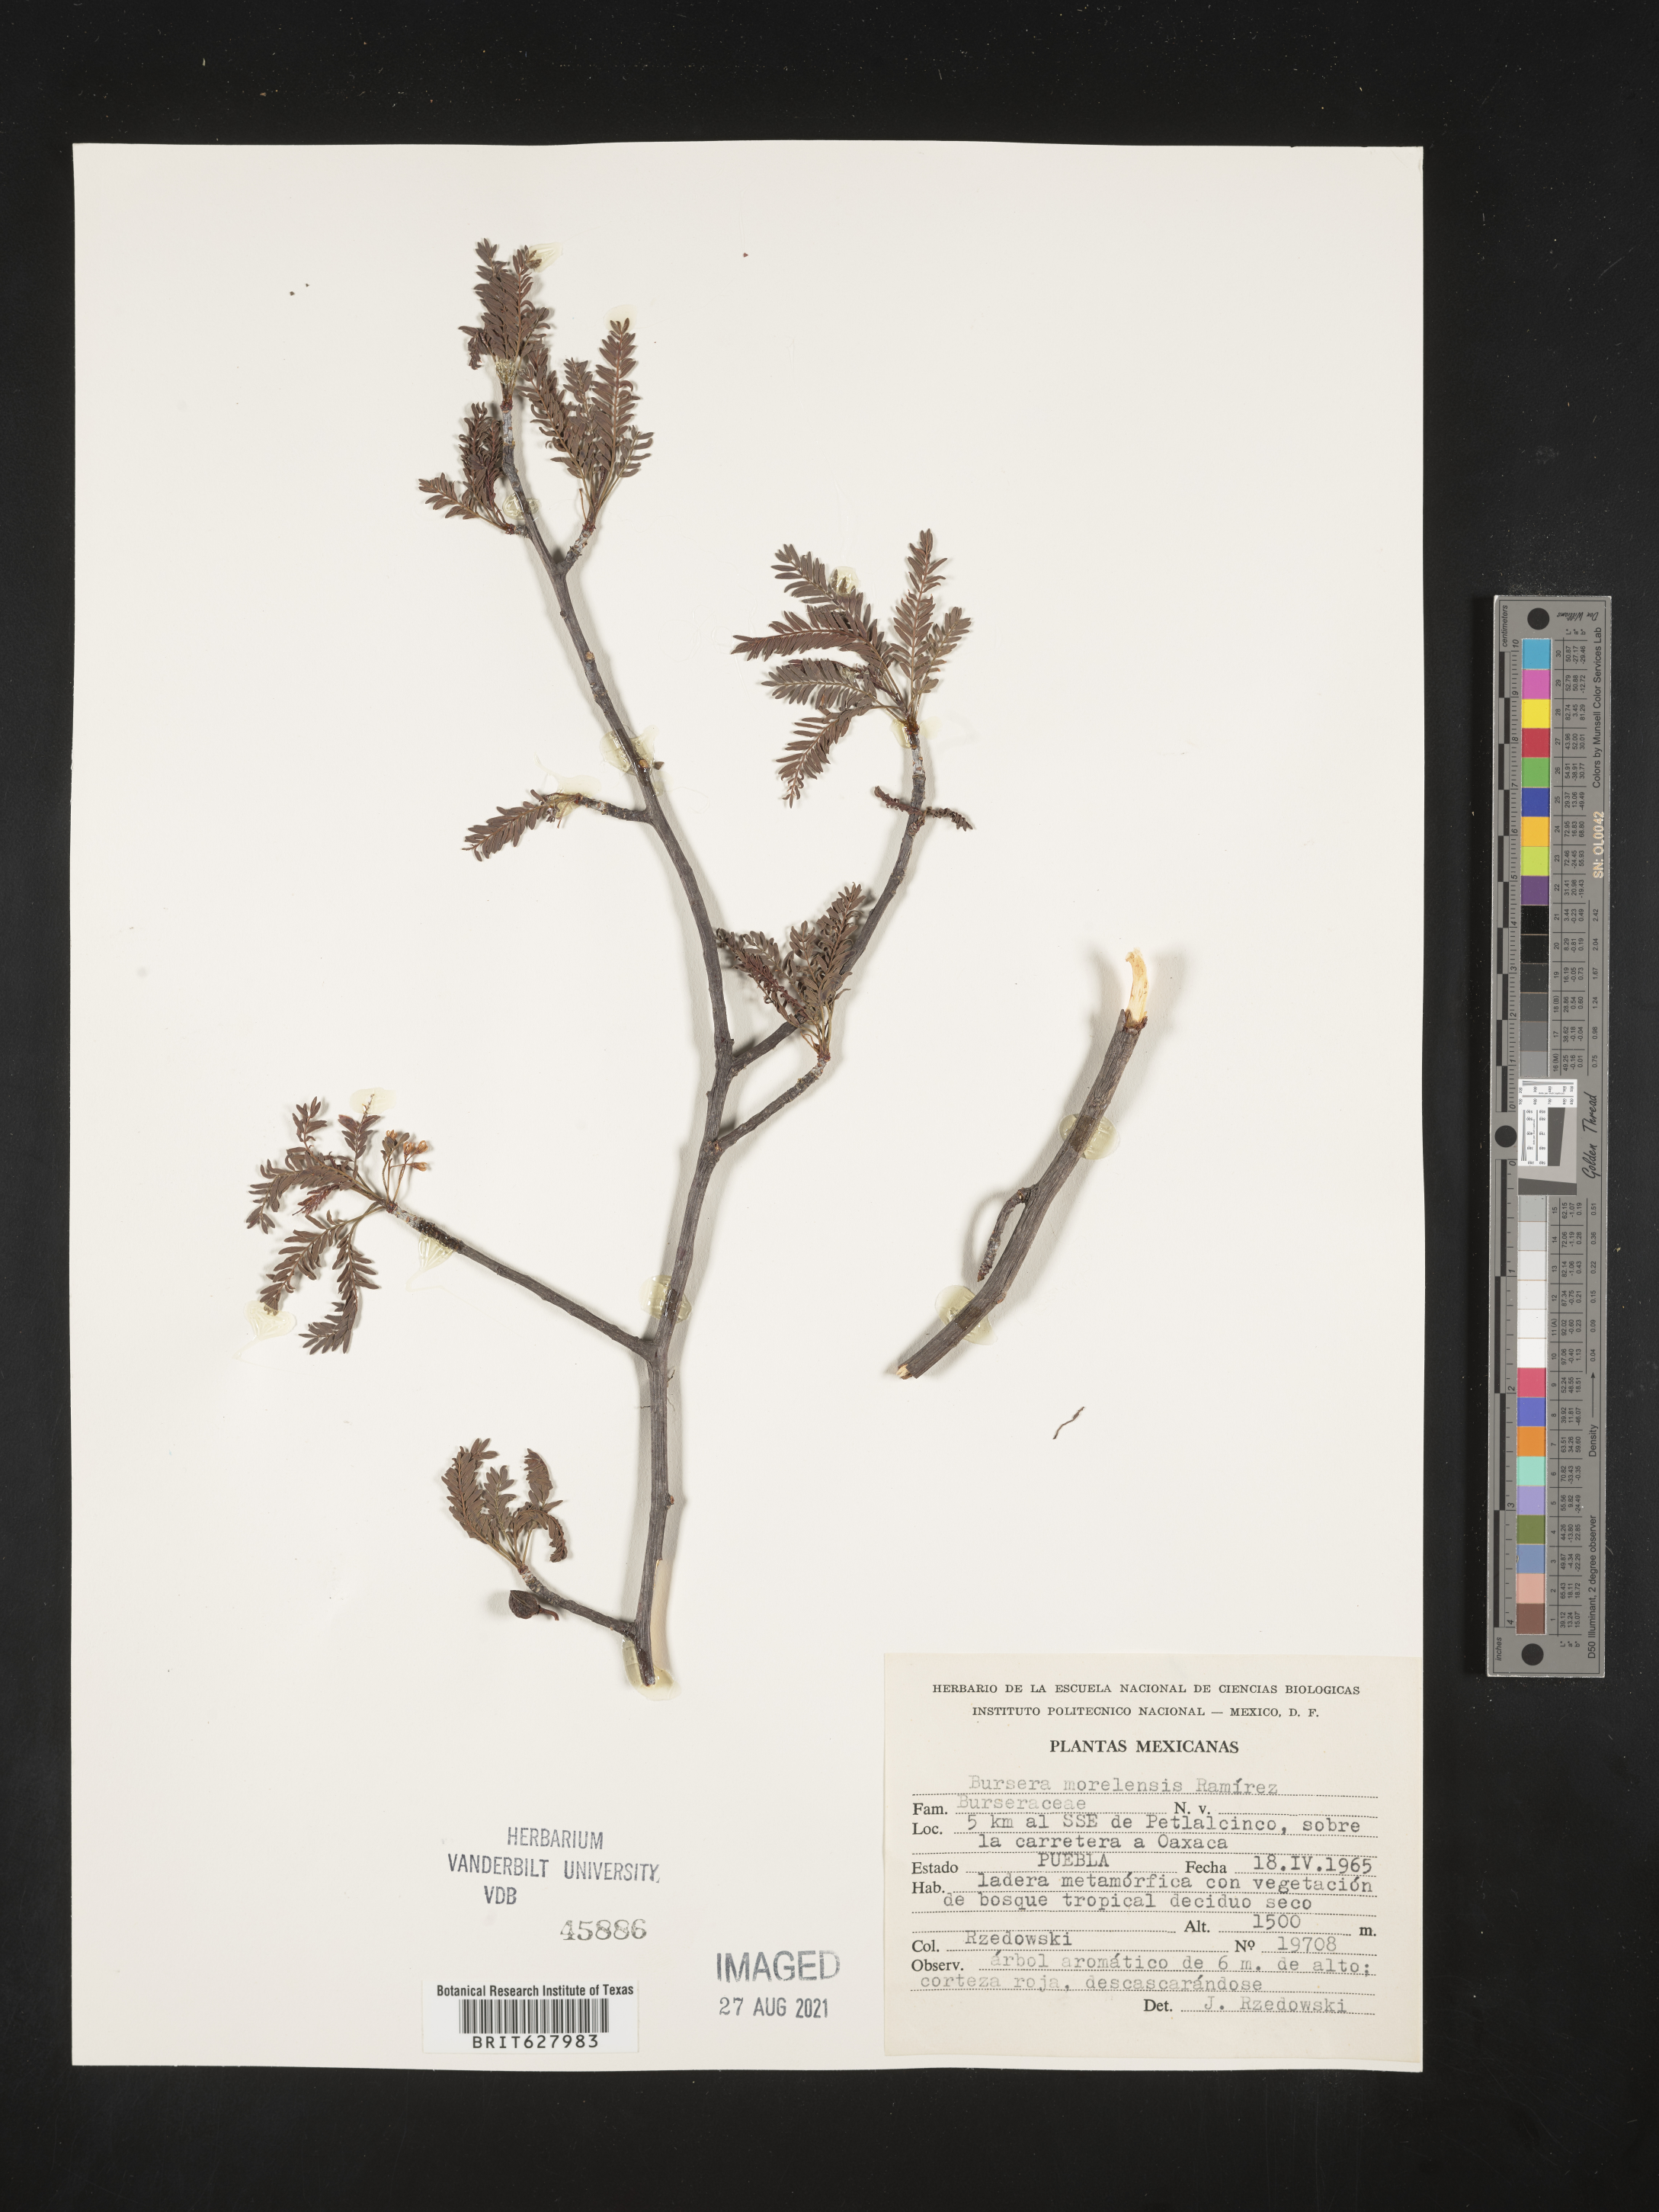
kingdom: Plantae
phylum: Tracheophyta
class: Magnoliopsida
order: Sapindales
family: Burseraceae
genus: Bursera
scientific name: Bursera
